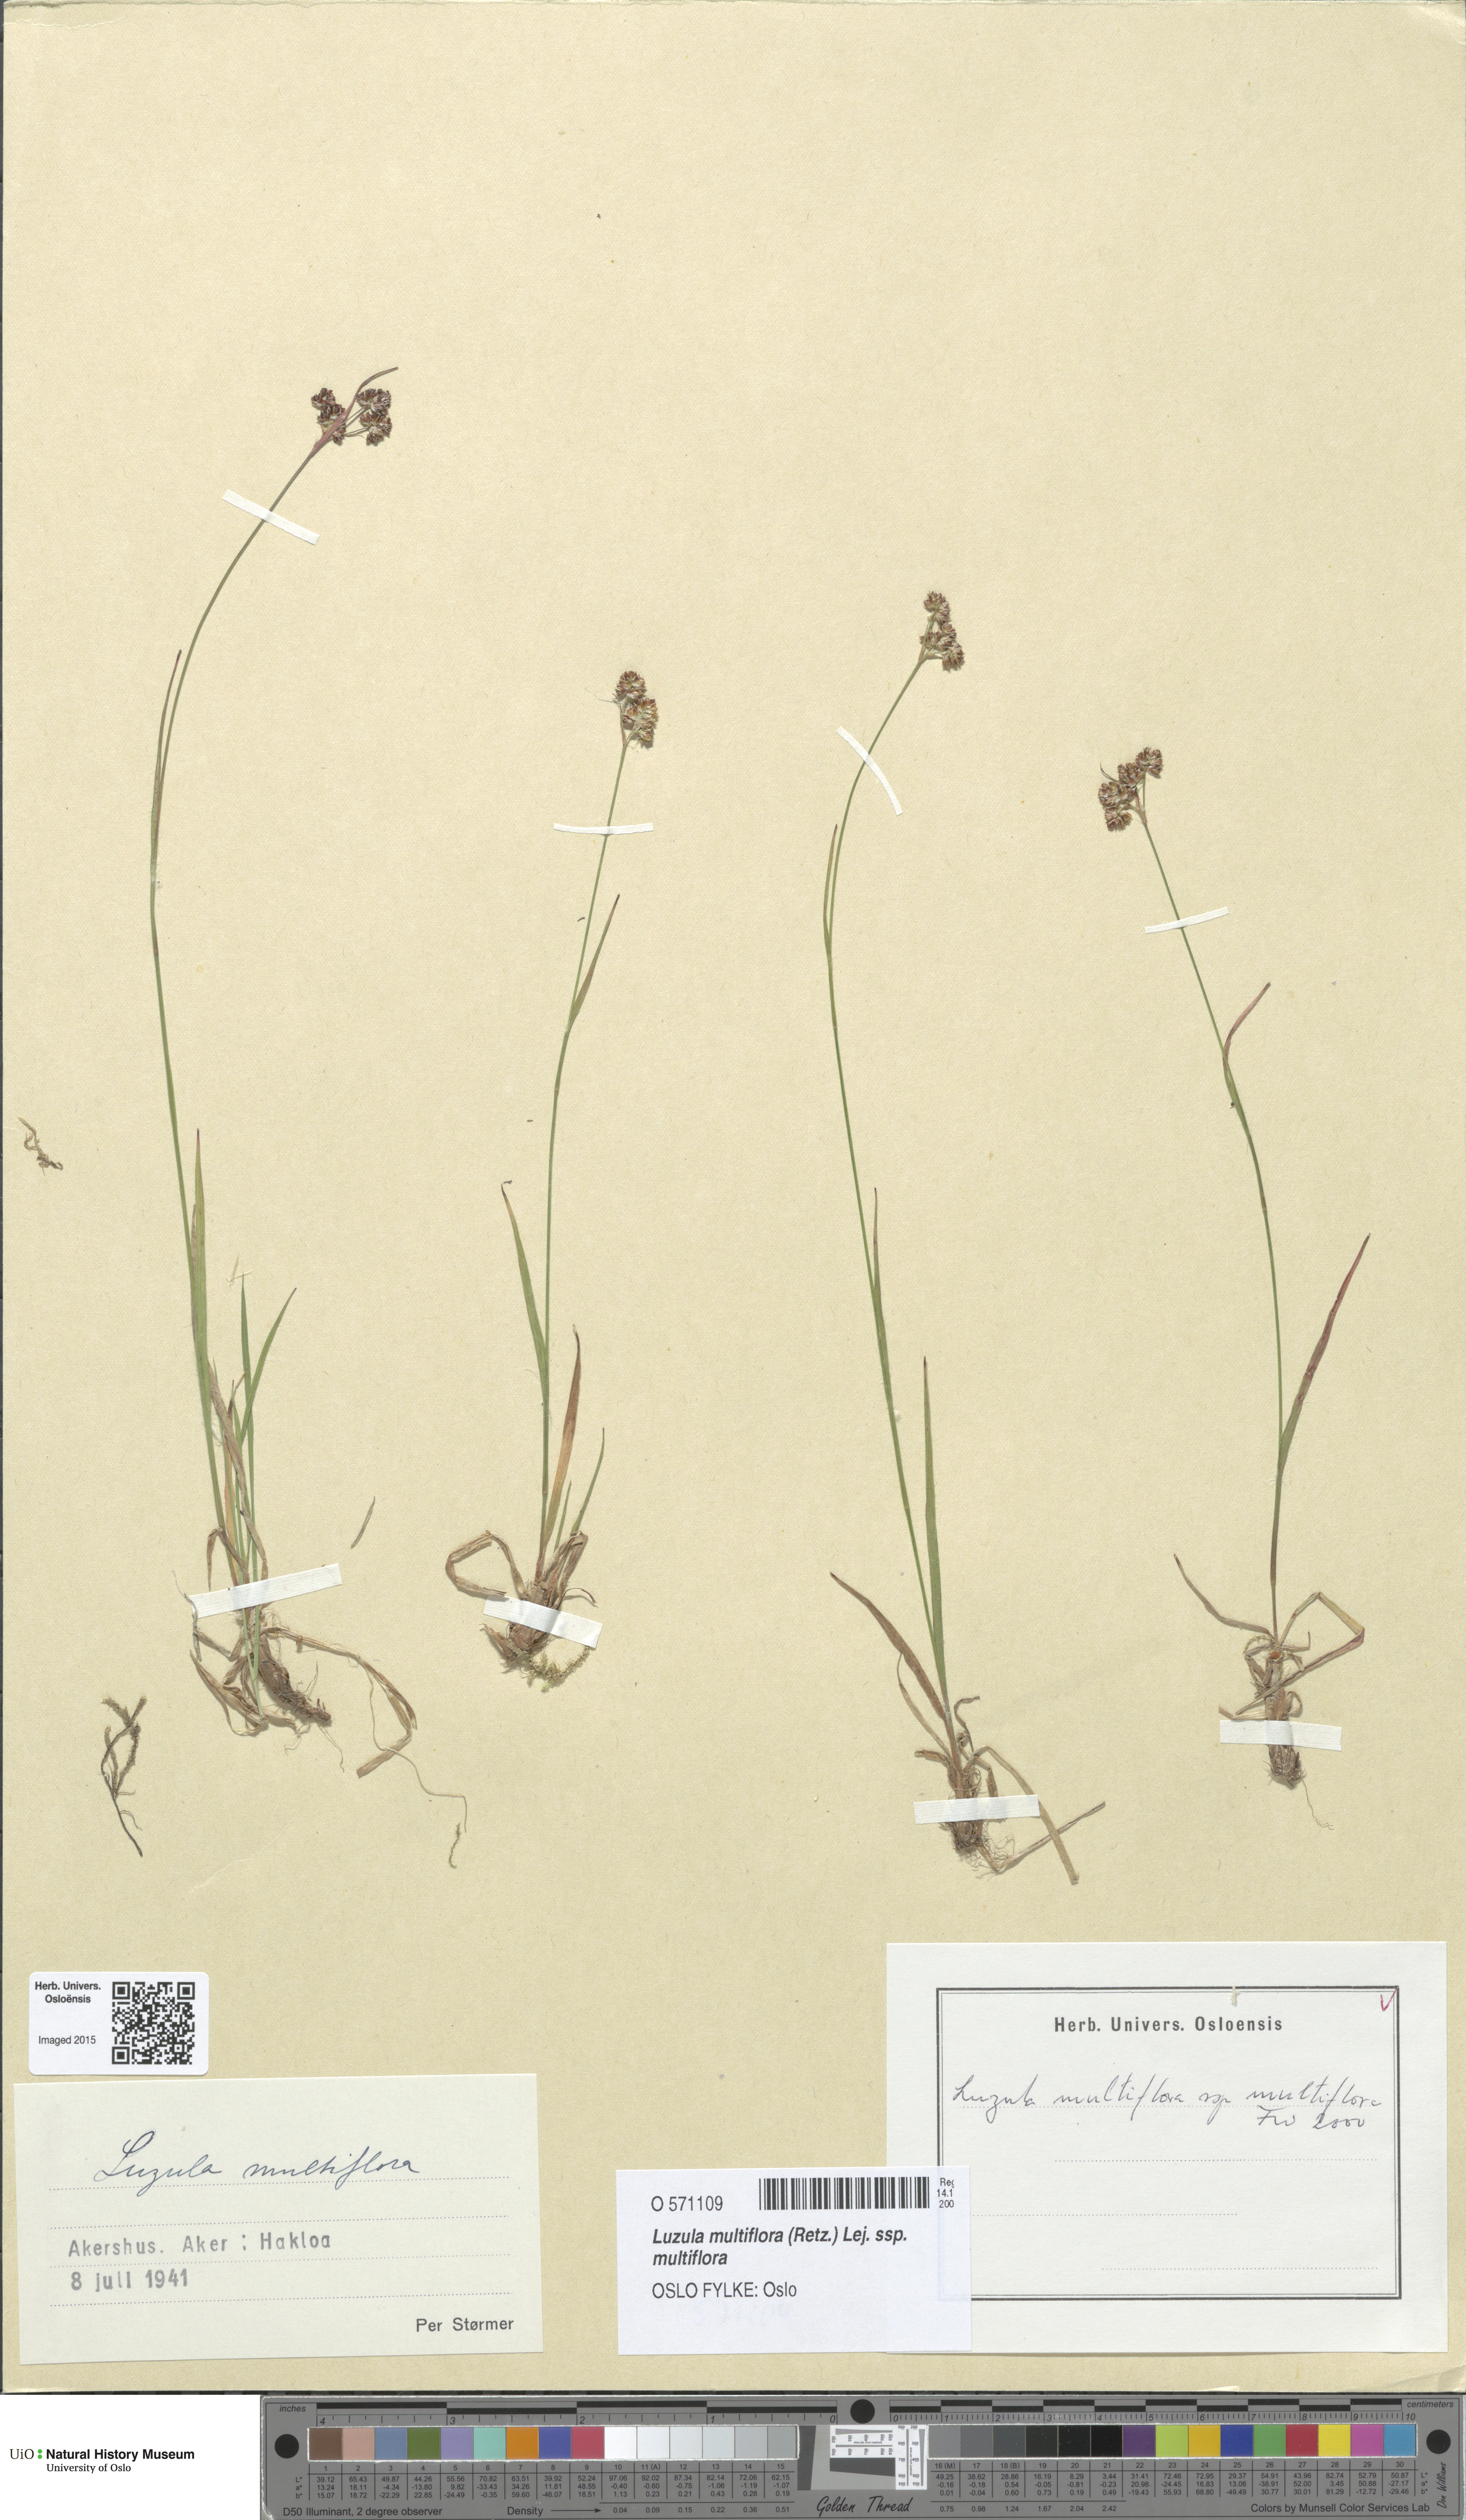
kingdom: Plantae
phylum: Tracheophyta
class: Liliopsida
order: Poales
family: Juncaceae
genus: Luzula
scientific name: Luzula multiflora
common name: Heath wood-rush
